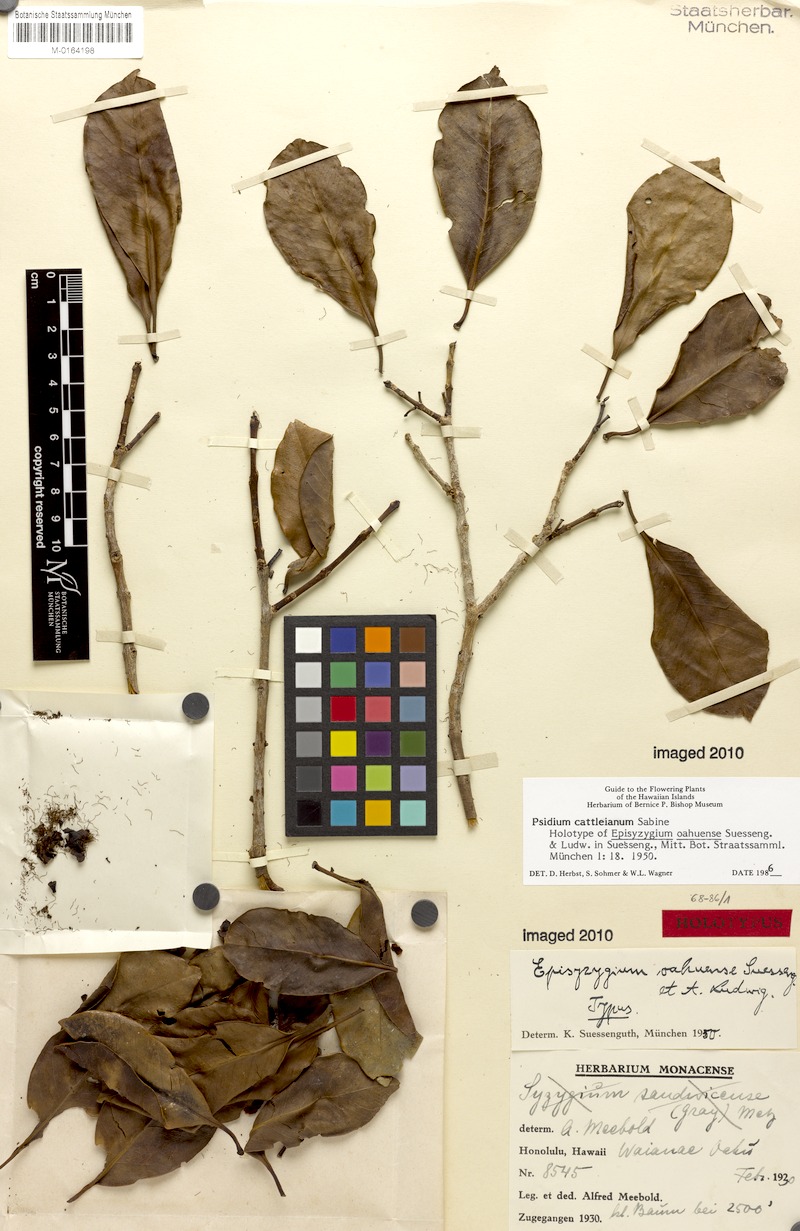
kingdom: Plantae
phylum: Tracheophyta
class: Magnoliopsida
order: Myrtales
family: Myrtaceae
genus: Eugenia
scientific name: Eugenia reinwardtiana
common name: Cedar bay-cherry
